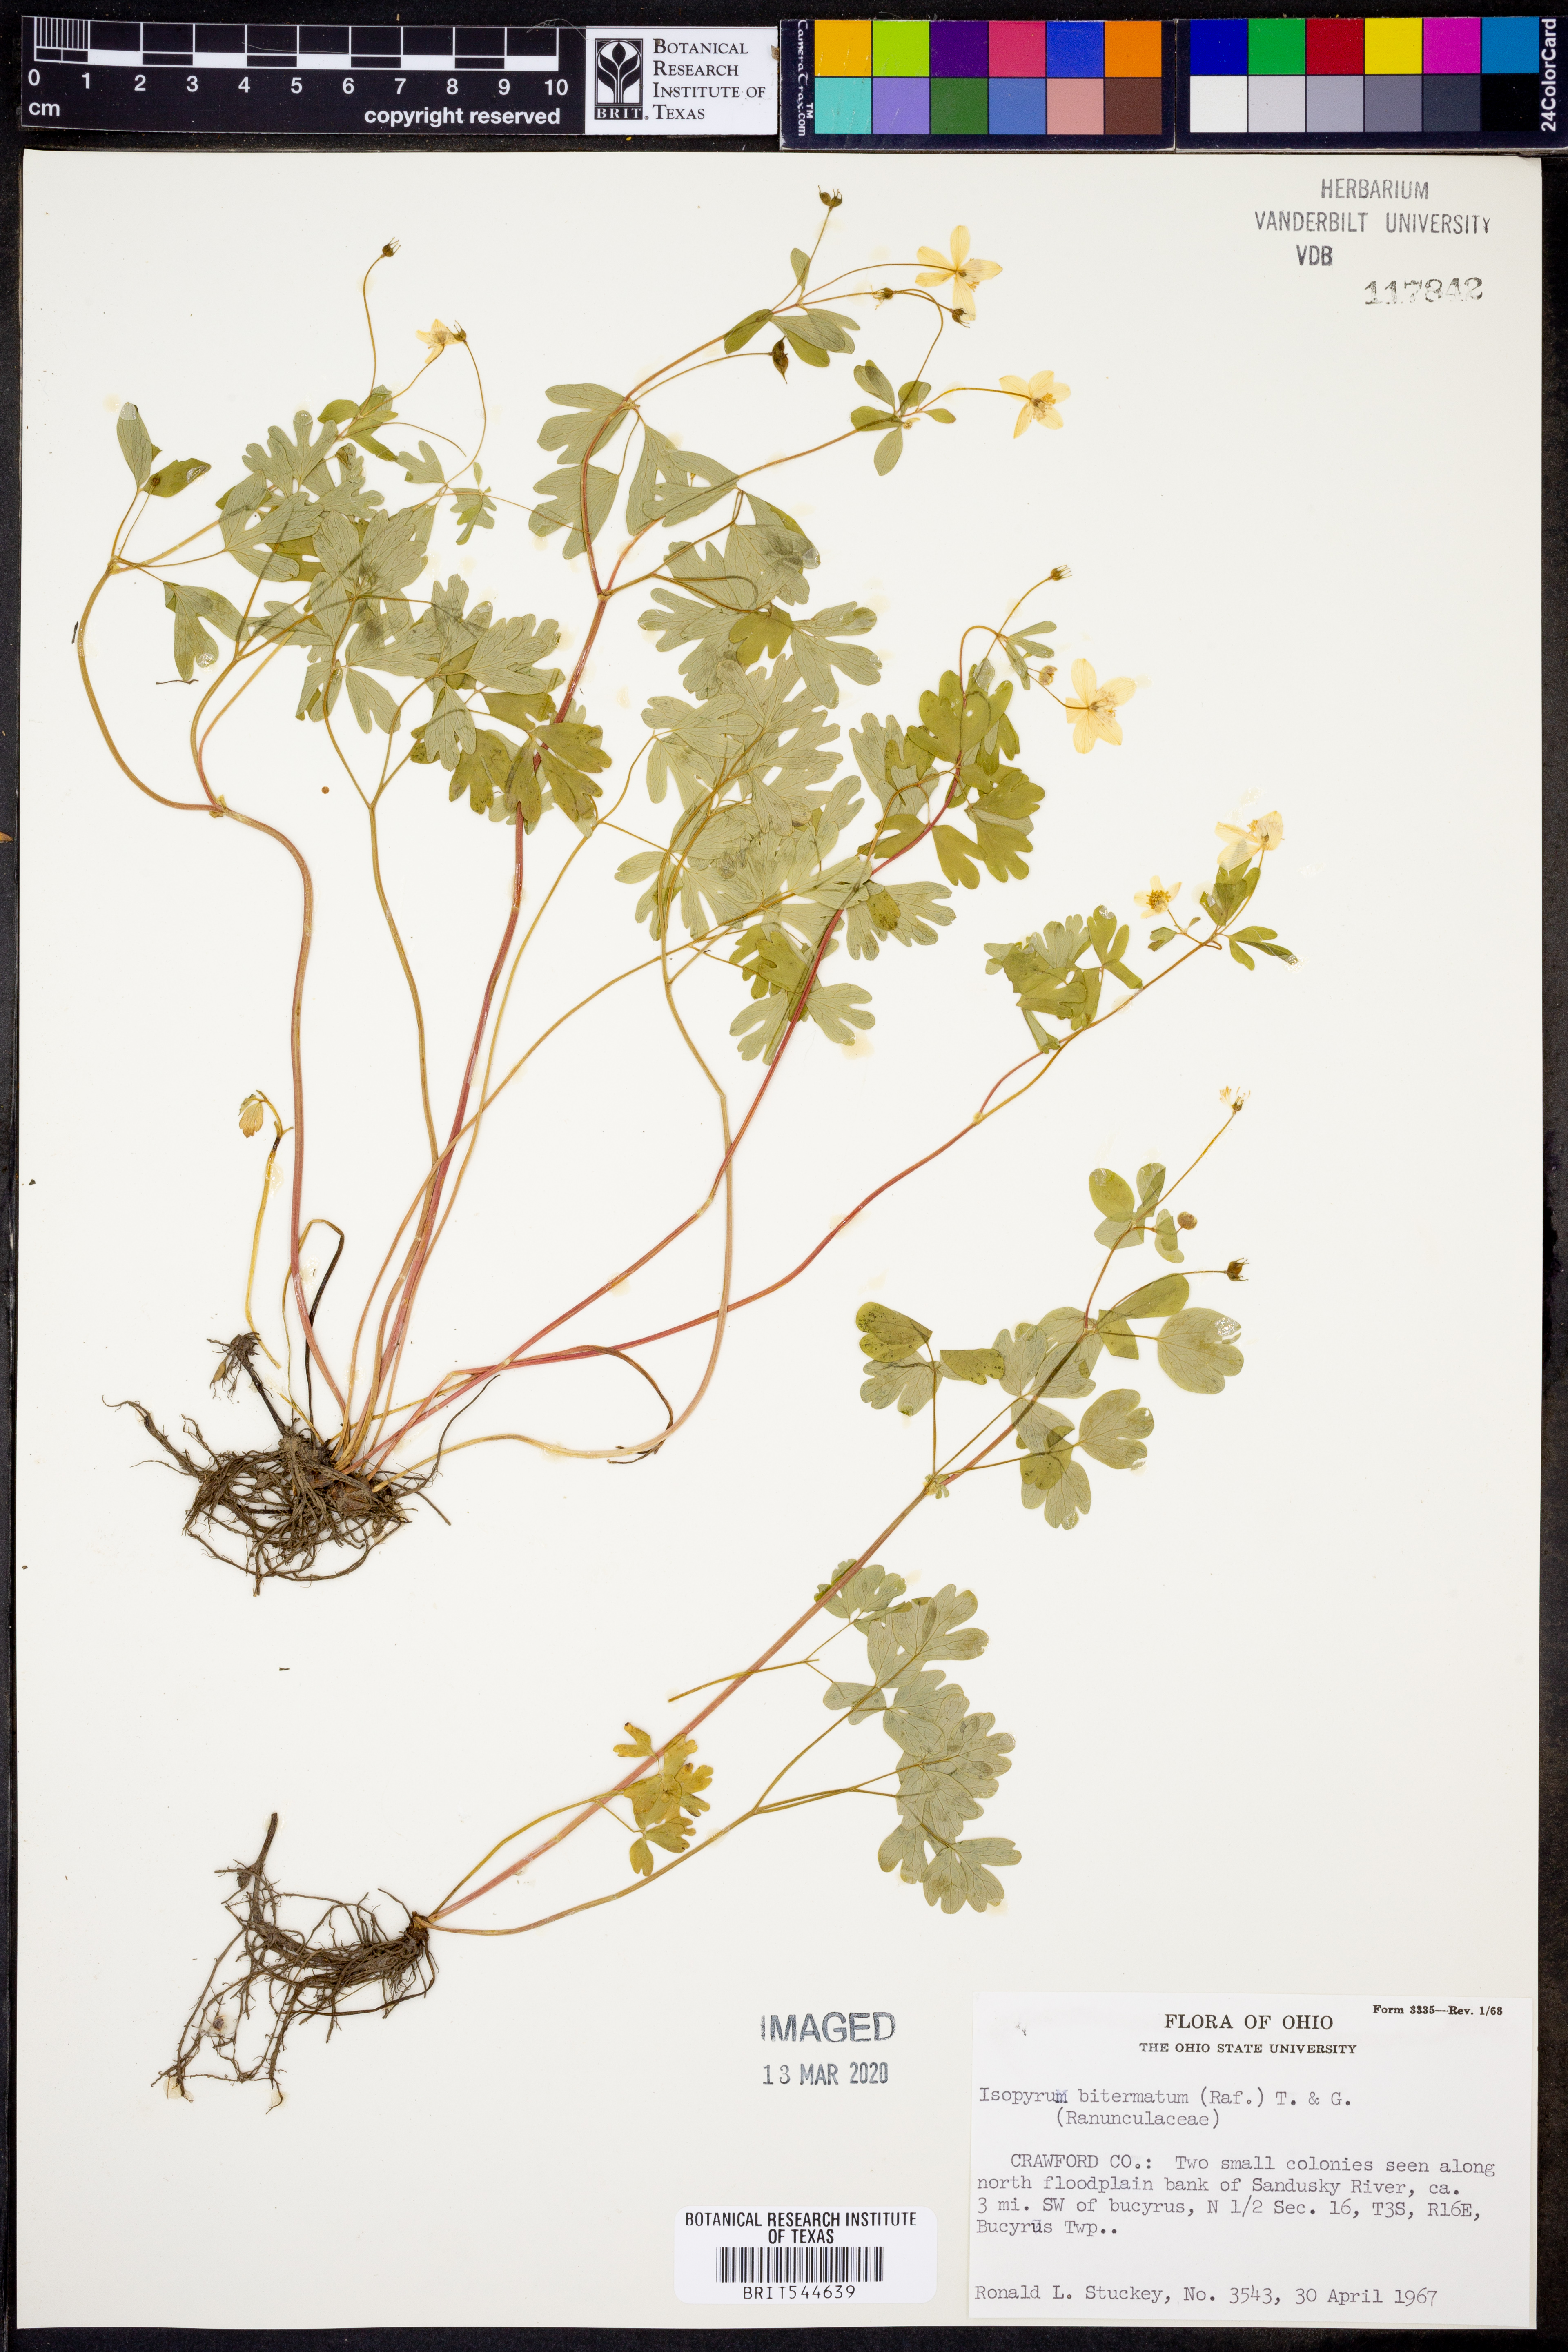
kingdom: Plantae
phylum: Tracheophyta
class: Magnoliopsida
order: Ranunculales
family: Ranunculaceae
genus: Enemion
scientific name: Enemion biternatum
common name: Eastern false rue-anemone
